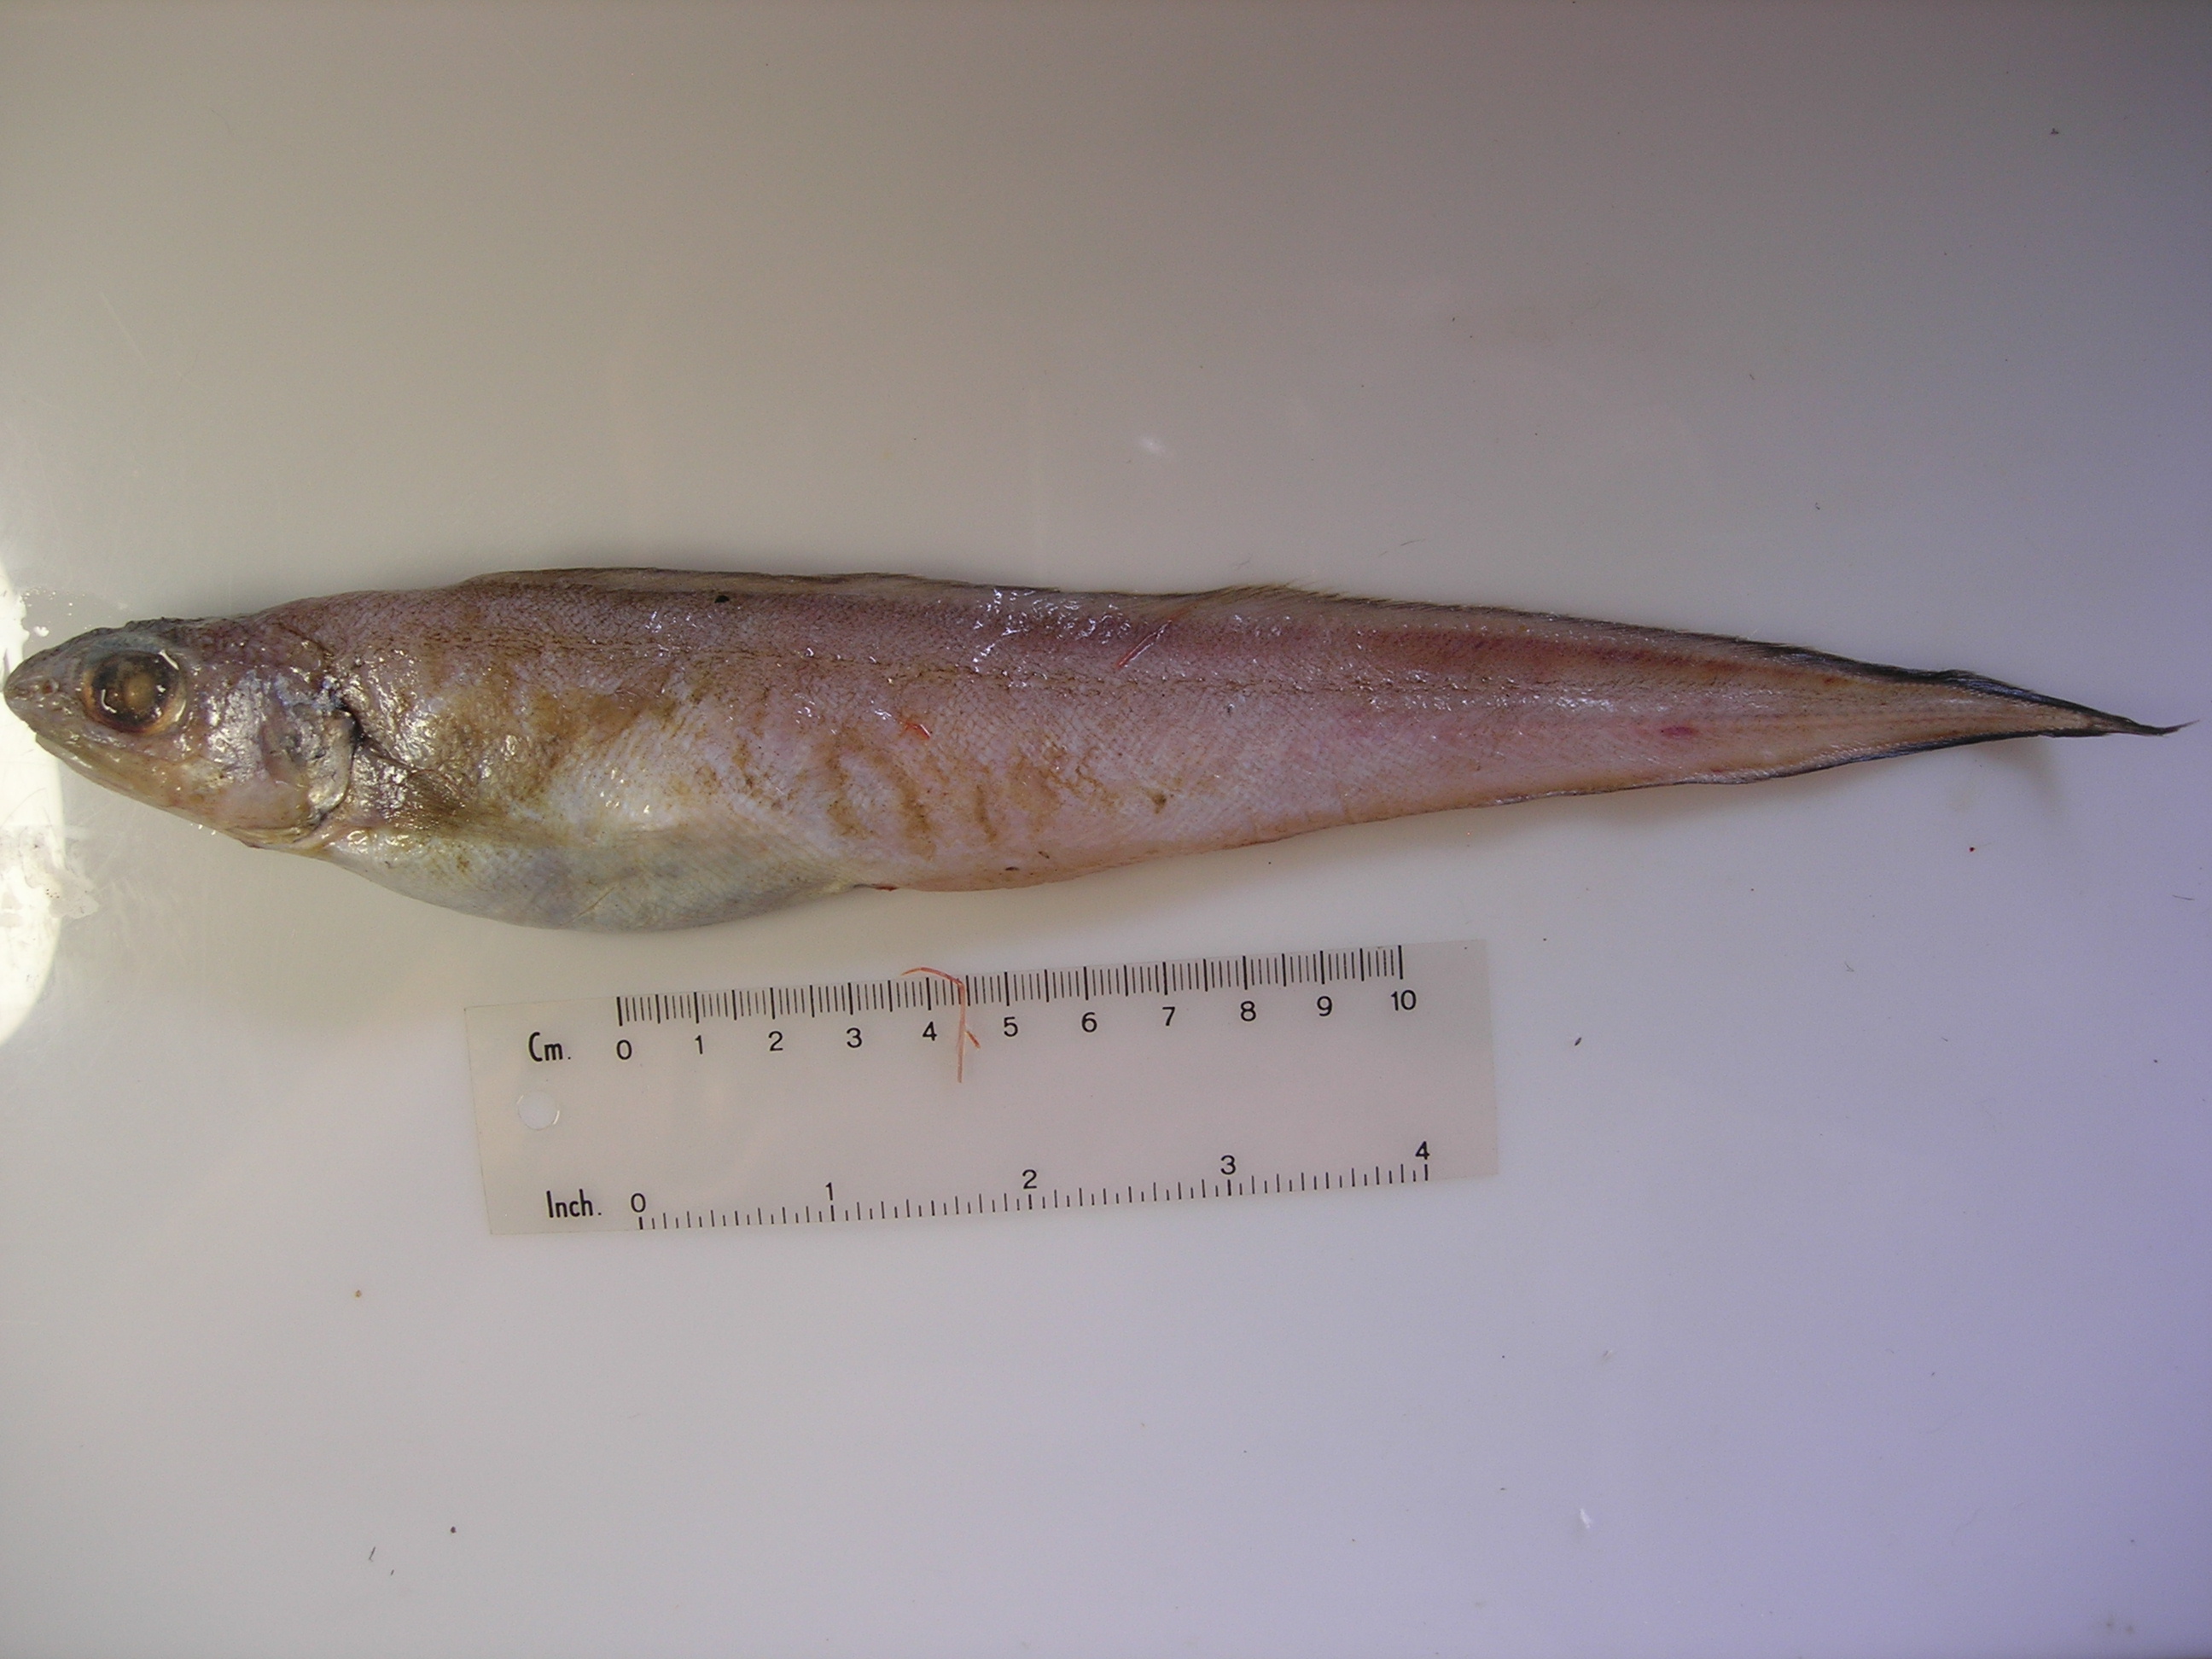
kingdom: Animalia
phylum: Chordata
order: Ophidiiformes
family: Ophidiidae
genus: Selachophidium
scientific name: Selachophidium guentheri
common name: Barbed brotula
